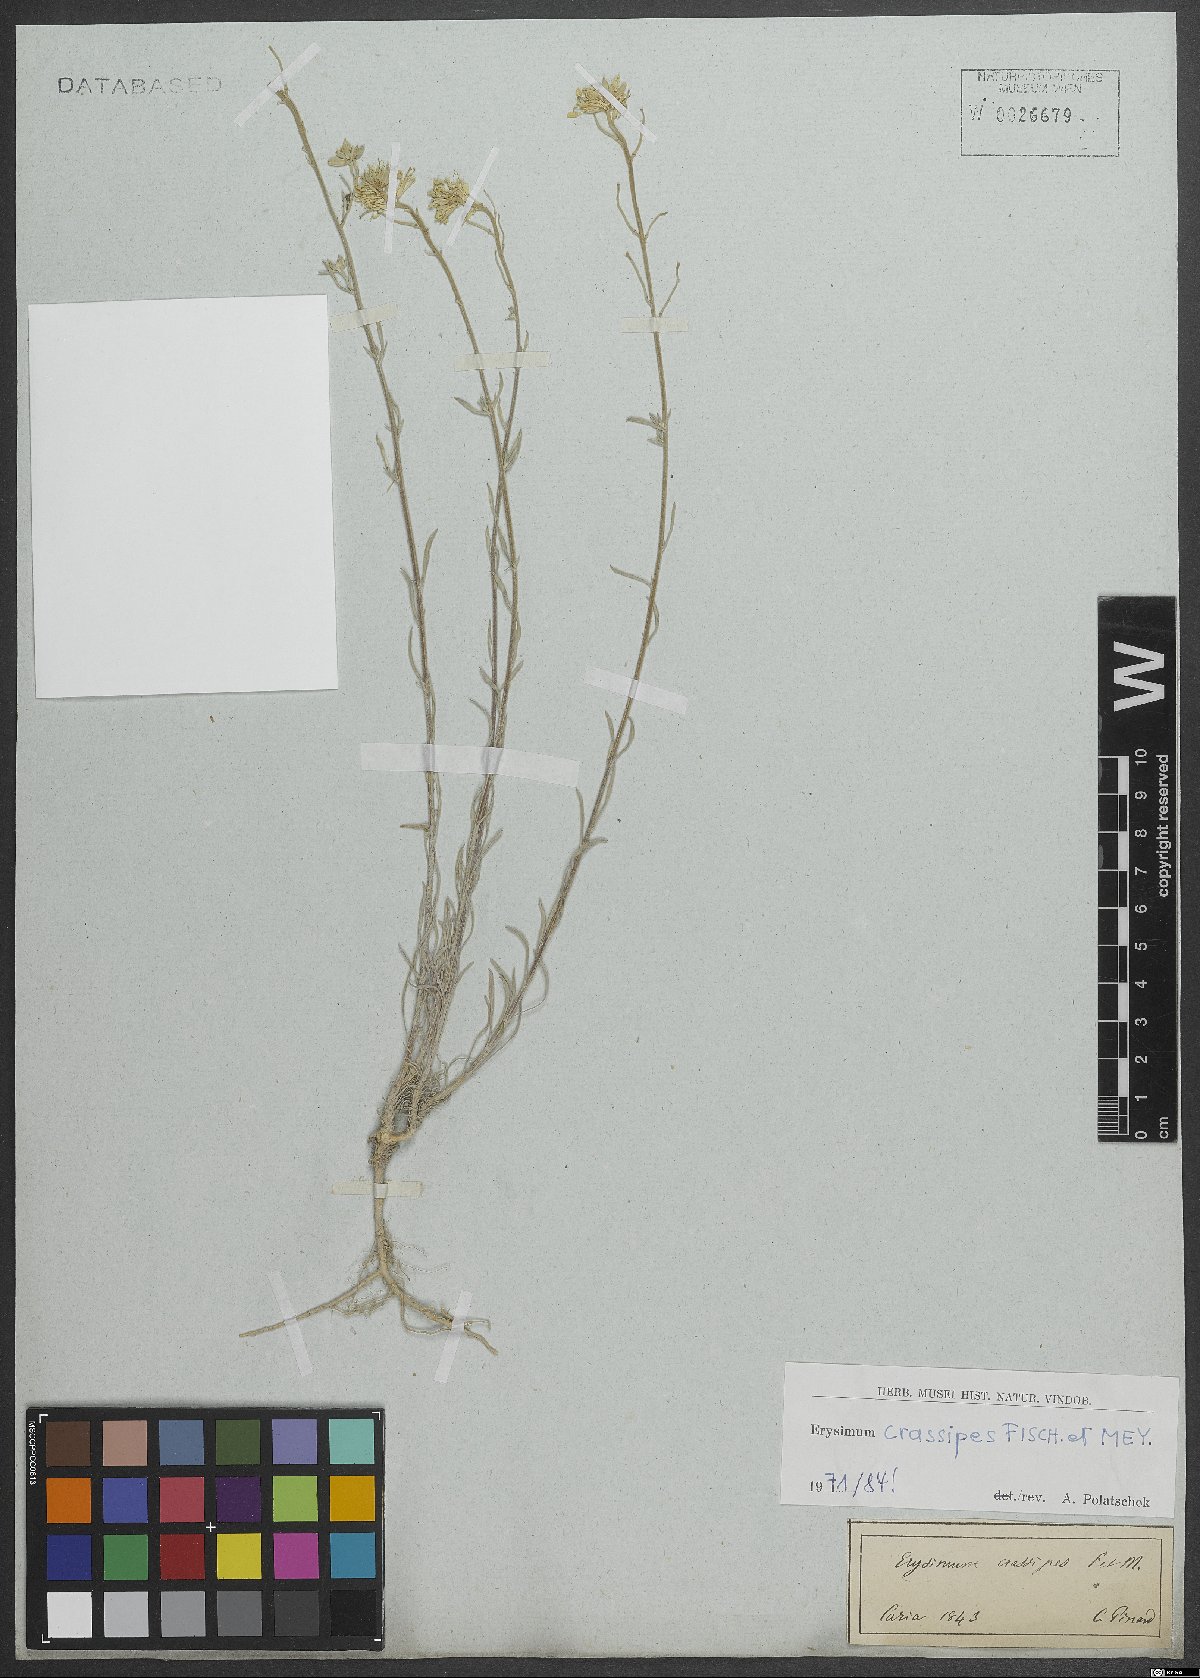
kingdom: Plantae
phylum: Tracheophyta
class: Magnoliopsida
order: Brassicales
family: Brassicaceae
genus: Erysimum
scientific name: Erysimum crassipes
